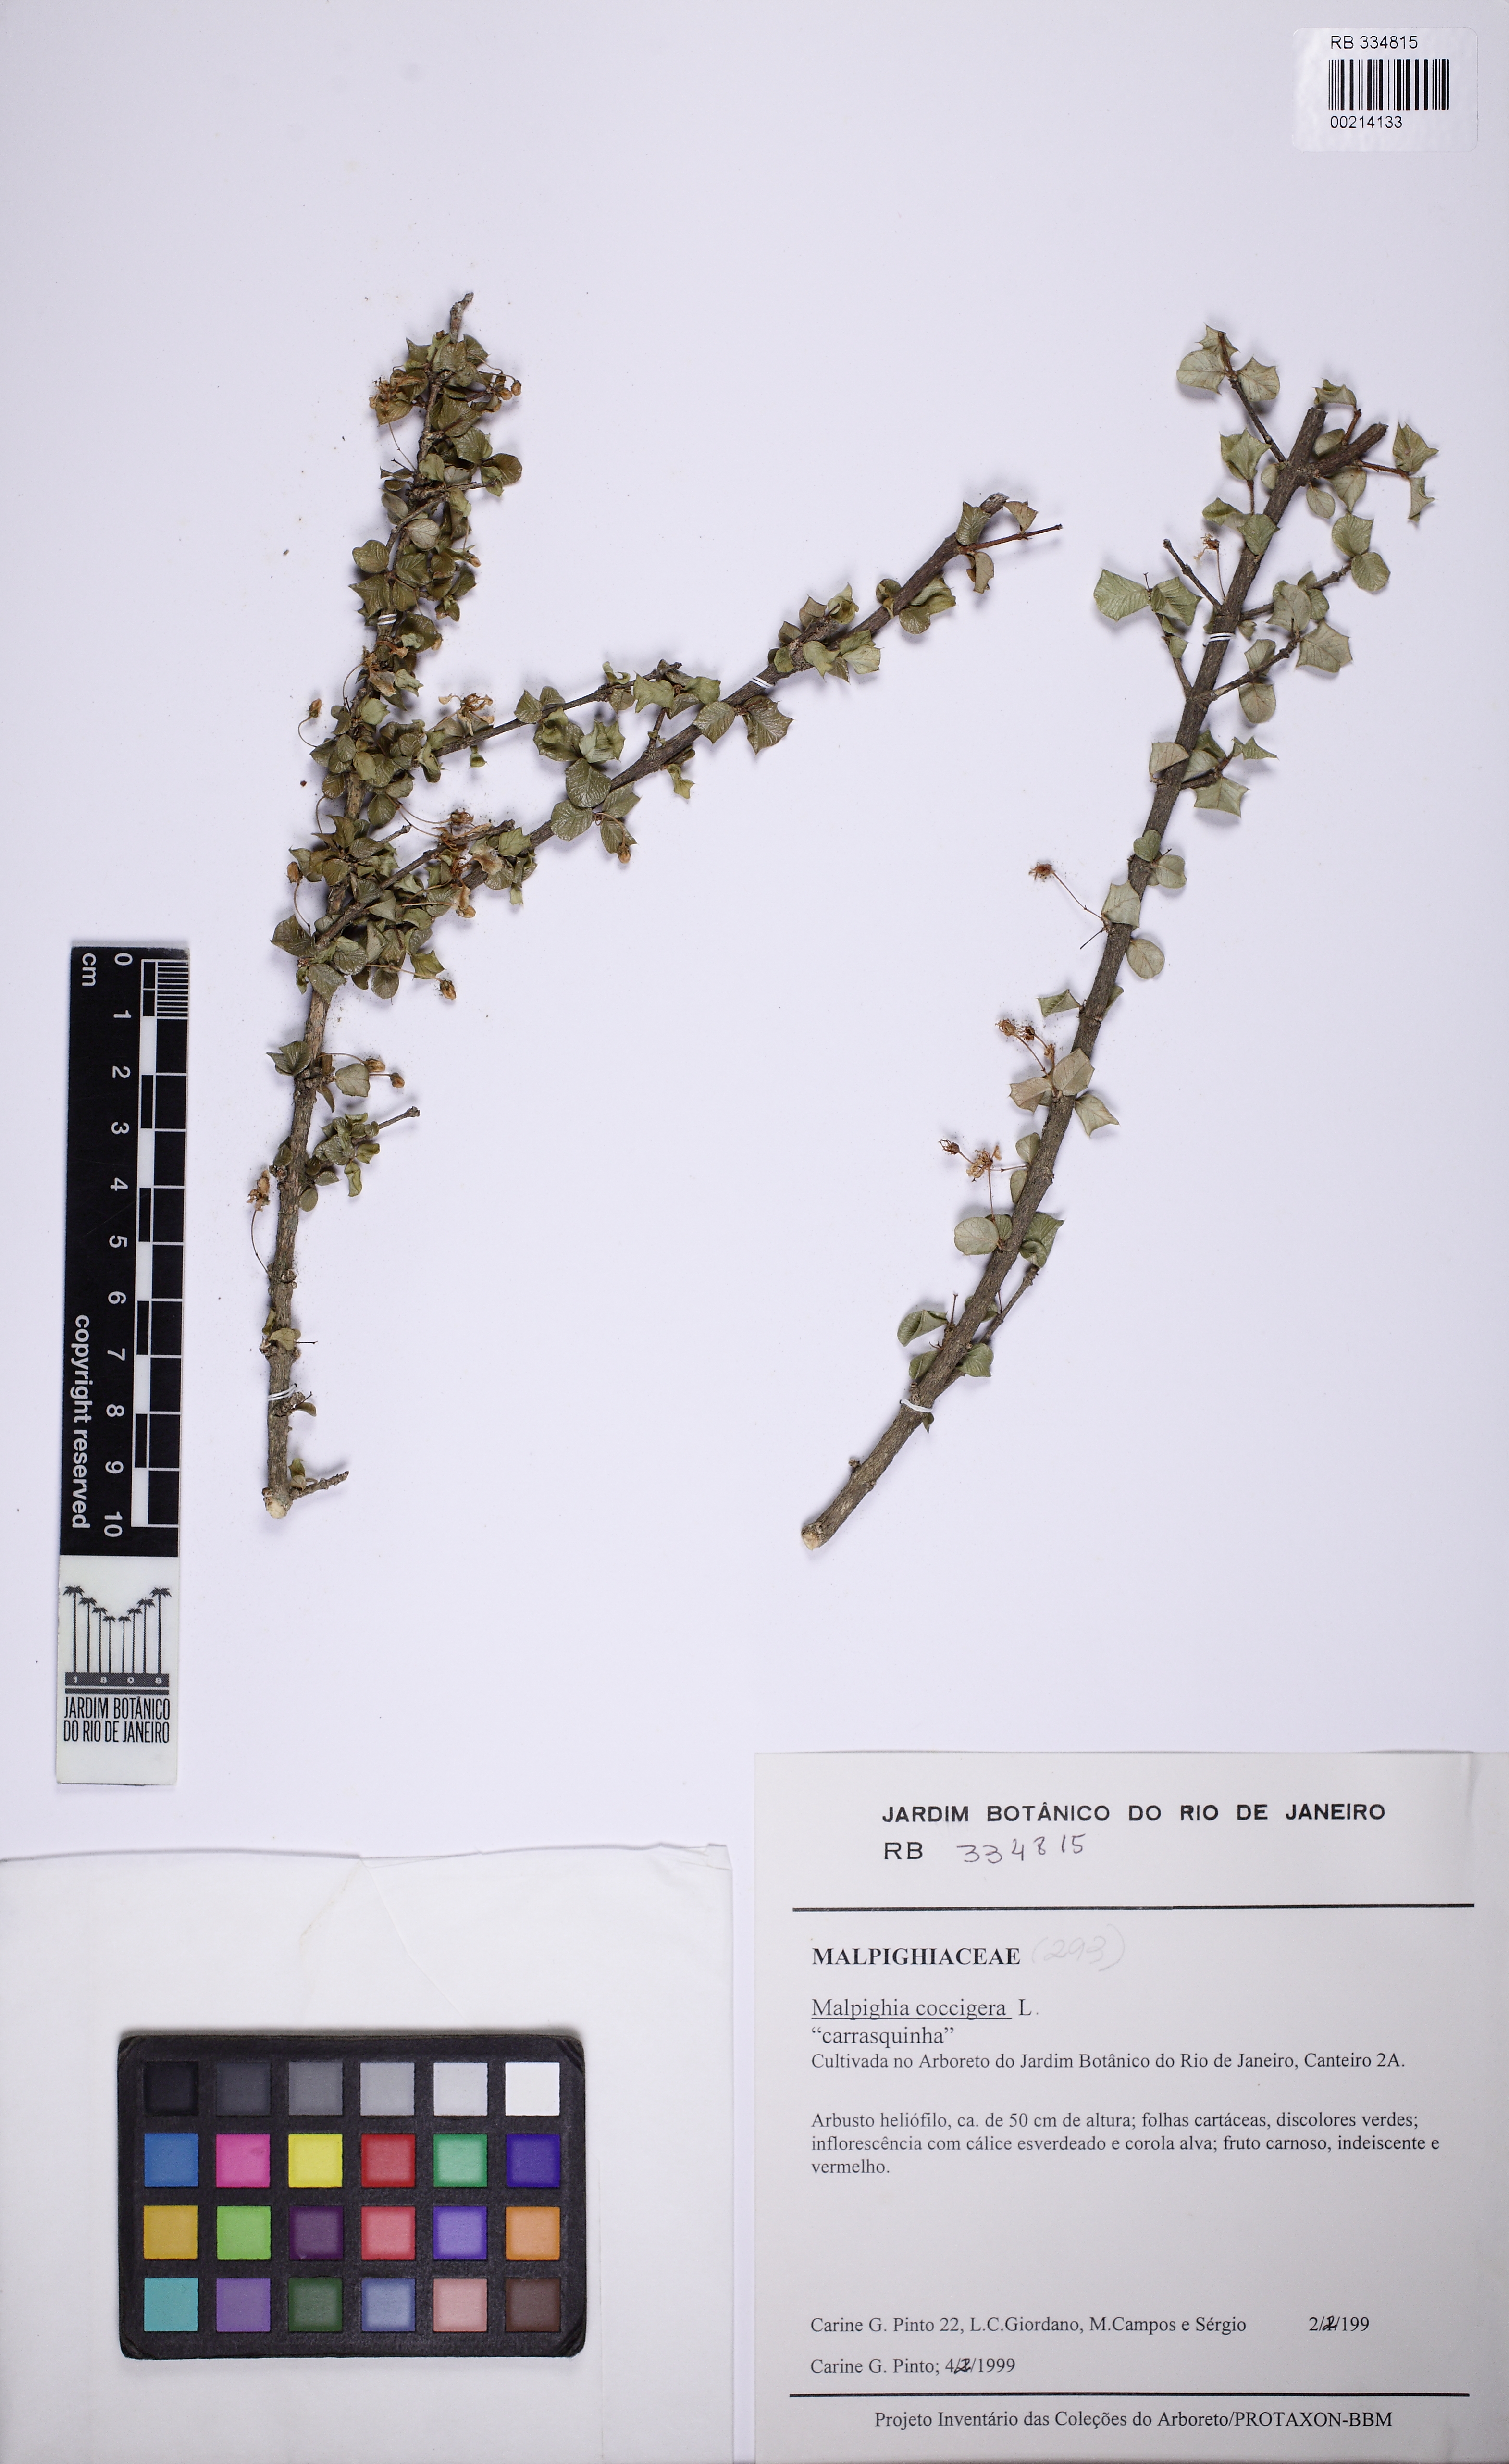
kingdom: Plantae
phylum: Tracheophyta
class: Magnoliopsida
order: Malpighiales
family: Malpighiaceae
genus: Malpighia
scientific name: Malpighia coccigera
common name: Singapore holly
